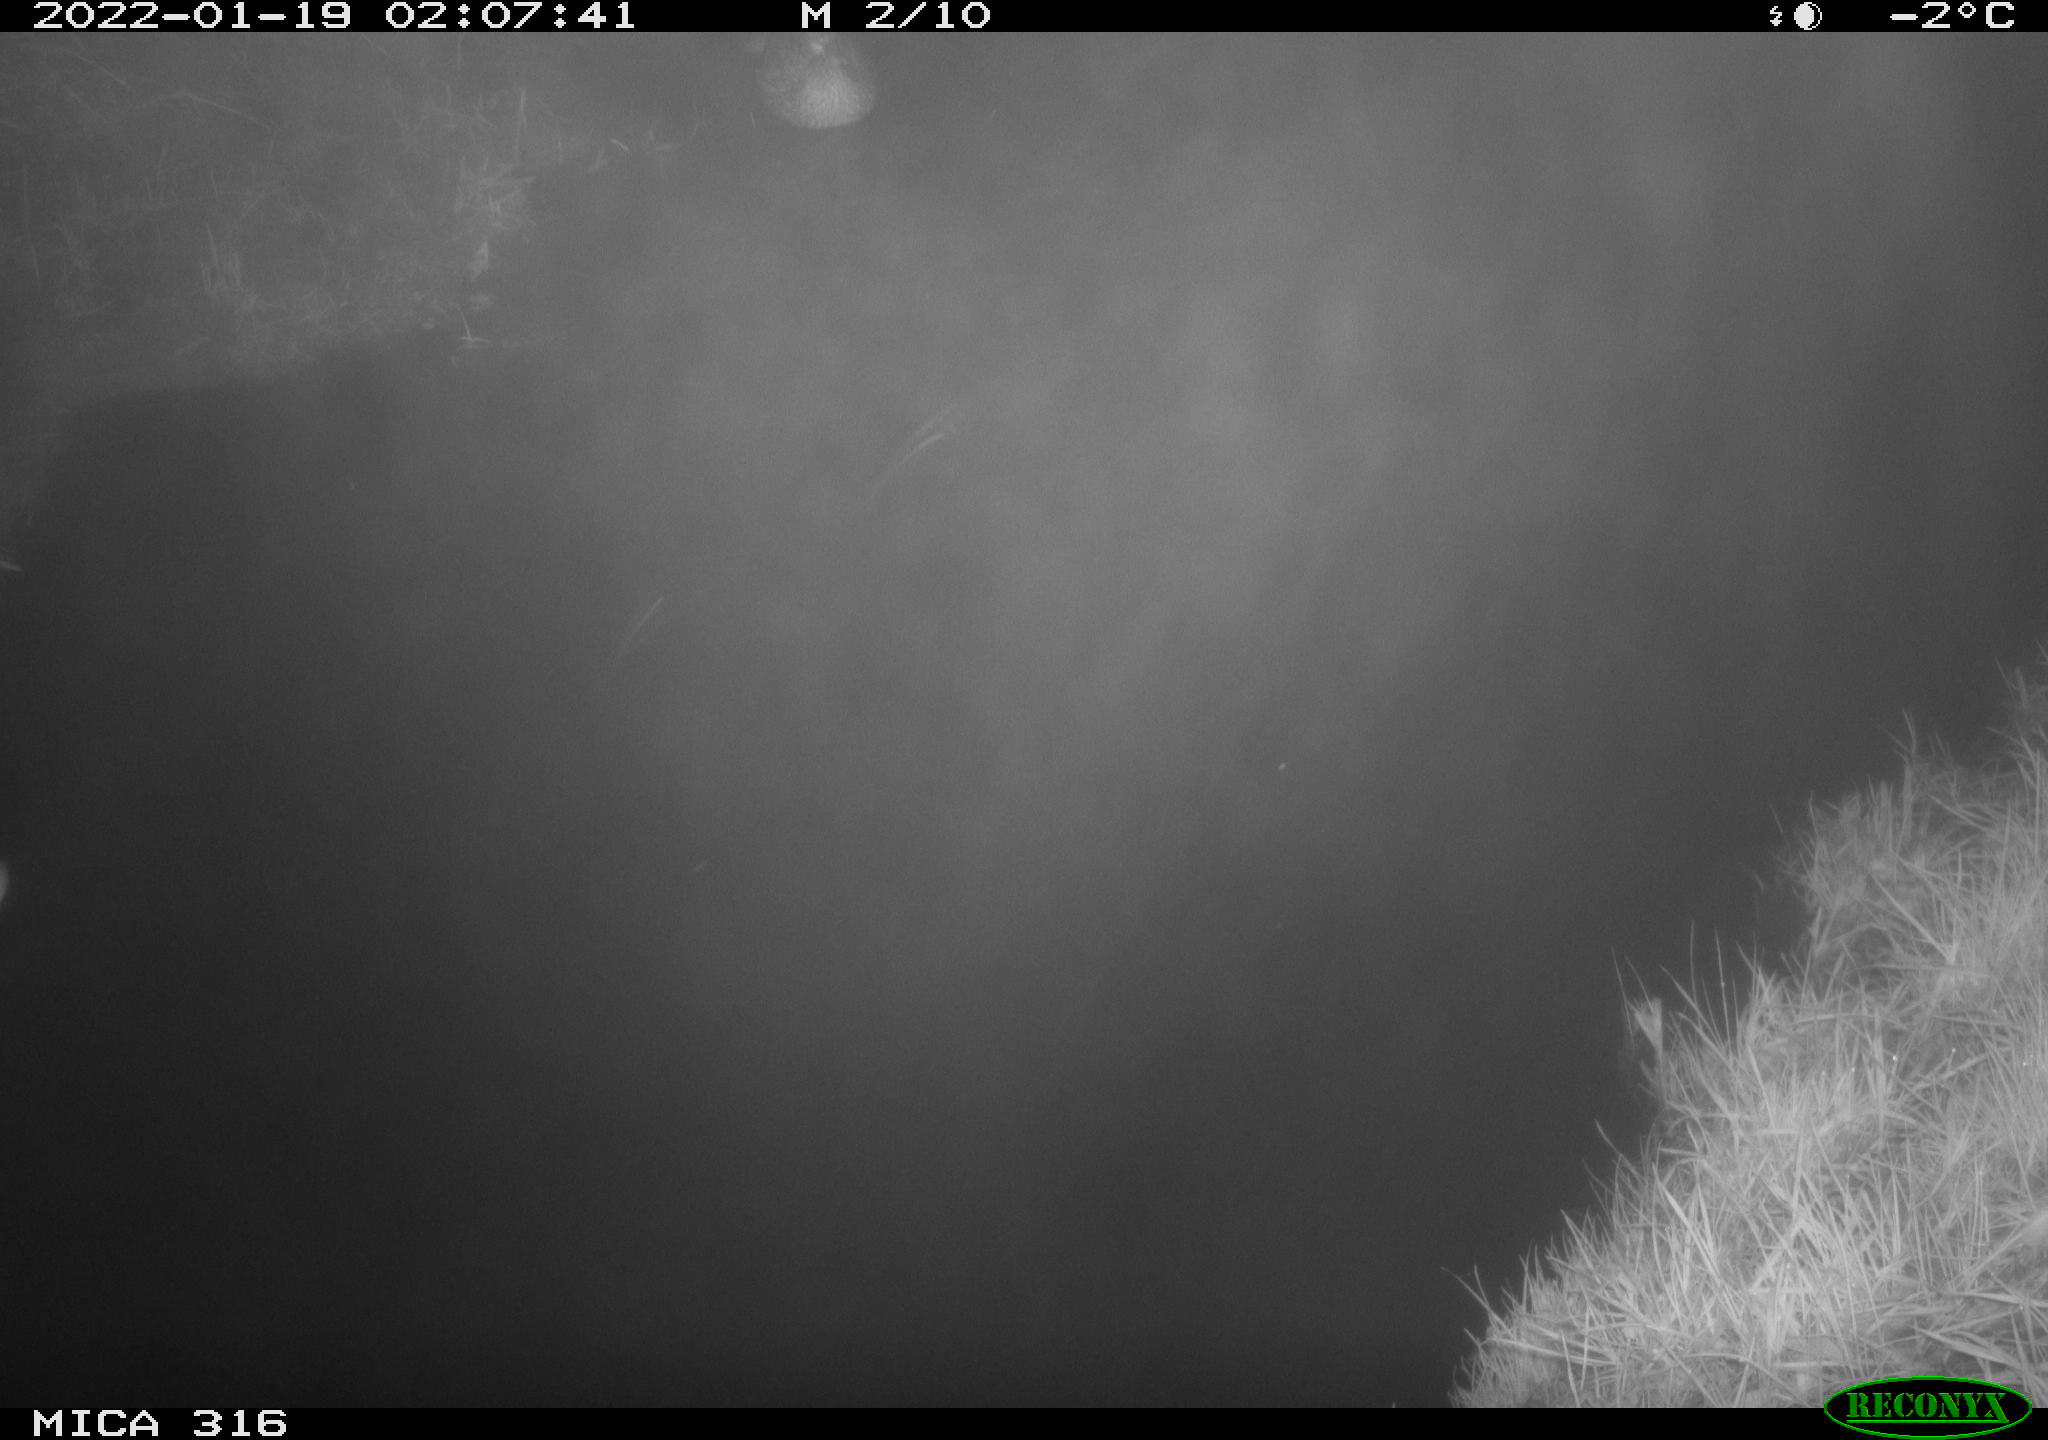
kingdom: Animalia
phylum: Chordata
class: Aves
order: Anseriformes
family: Anatidae
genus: Anas
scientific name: Anas platyrhynchos
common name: Mallard
